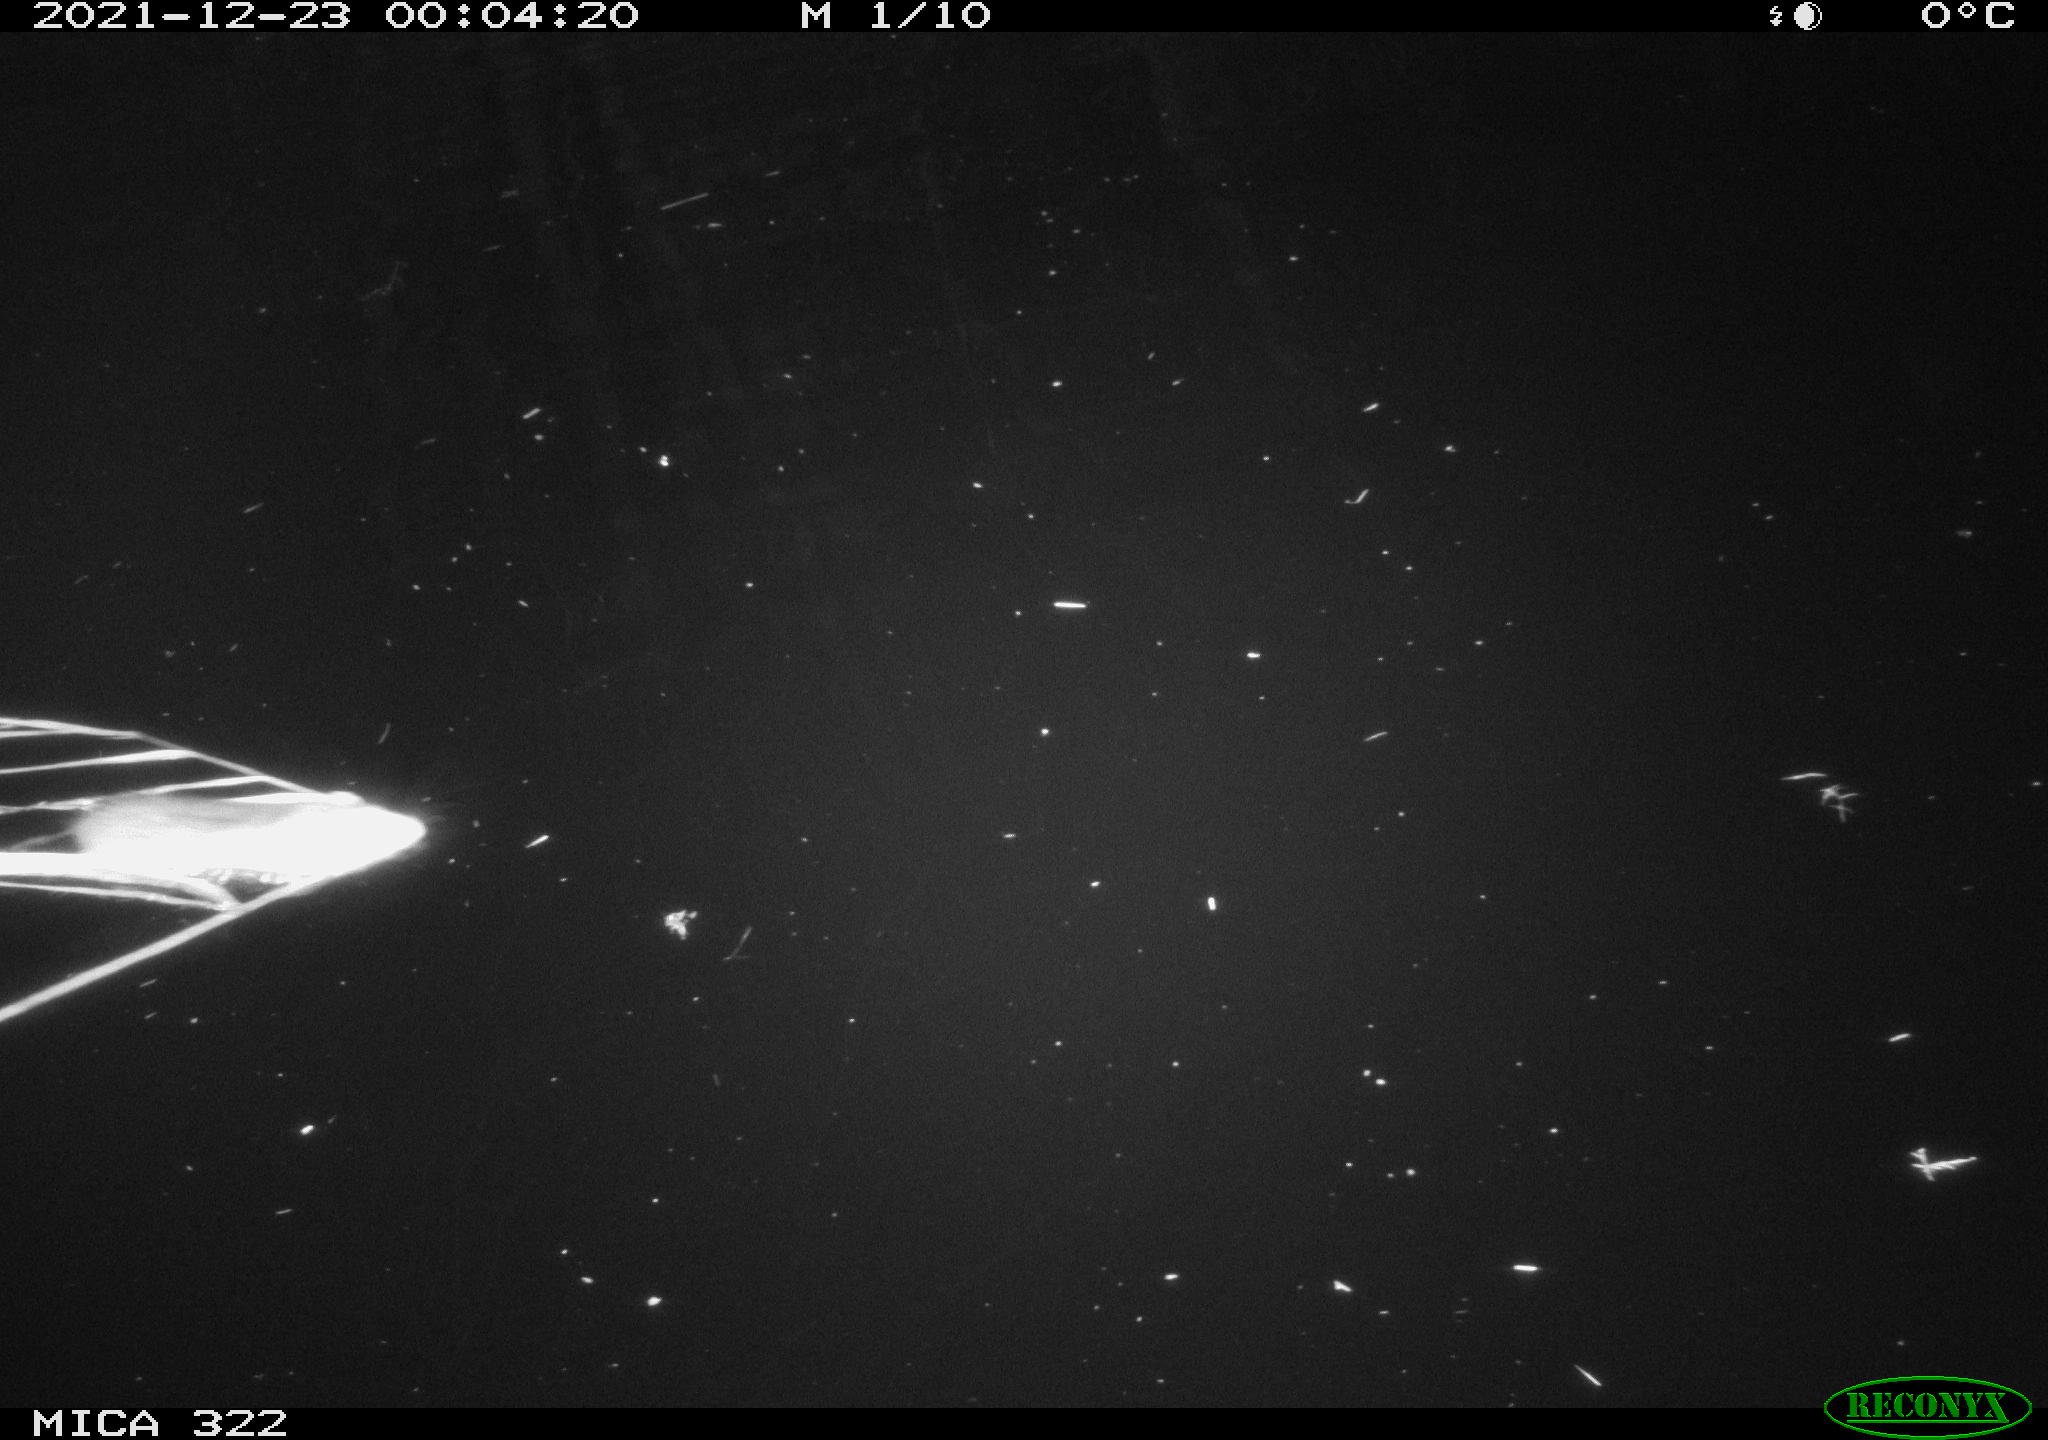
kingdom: Animalia
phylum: Chordata
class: Mammalia
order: Rodentia
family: Cricetidae
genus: Ondatra
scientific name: Ondatra zibethicus
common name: Muskrat
